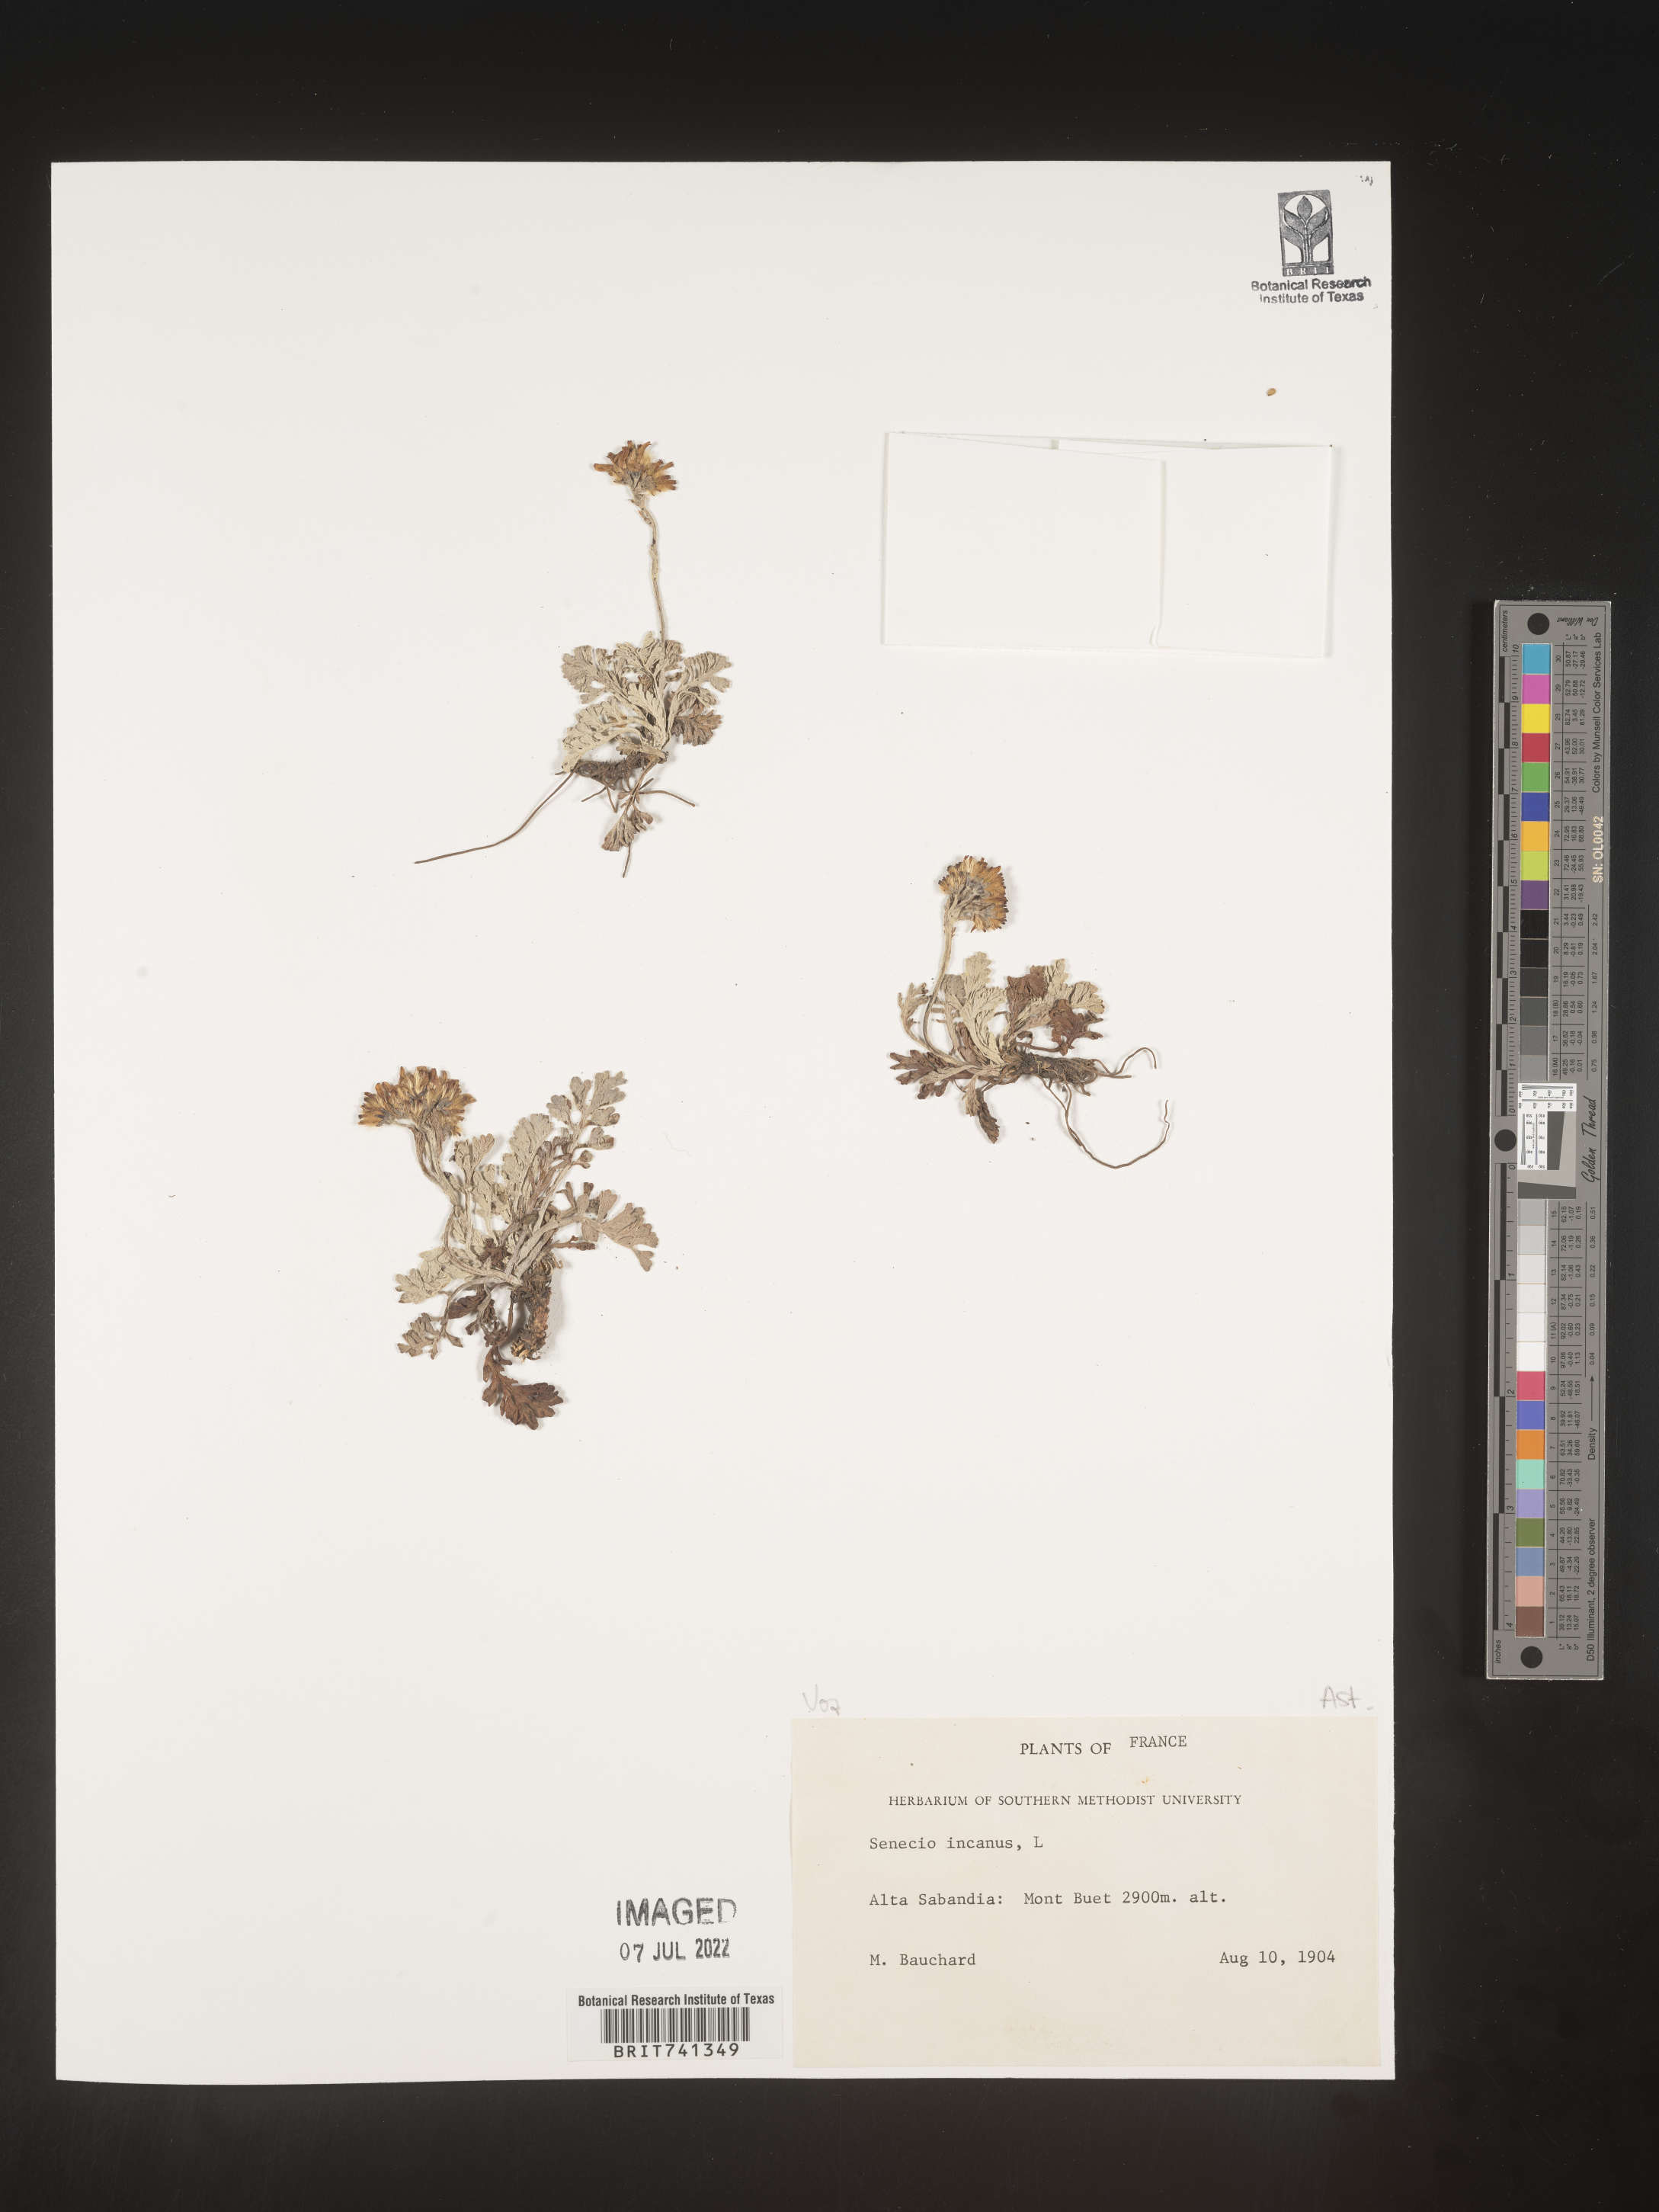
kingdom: Plantae
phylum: Tracheophyta
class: Magnoliopsida
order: Asterales
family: Asteraceae
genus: Senecio
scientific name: Senecio
